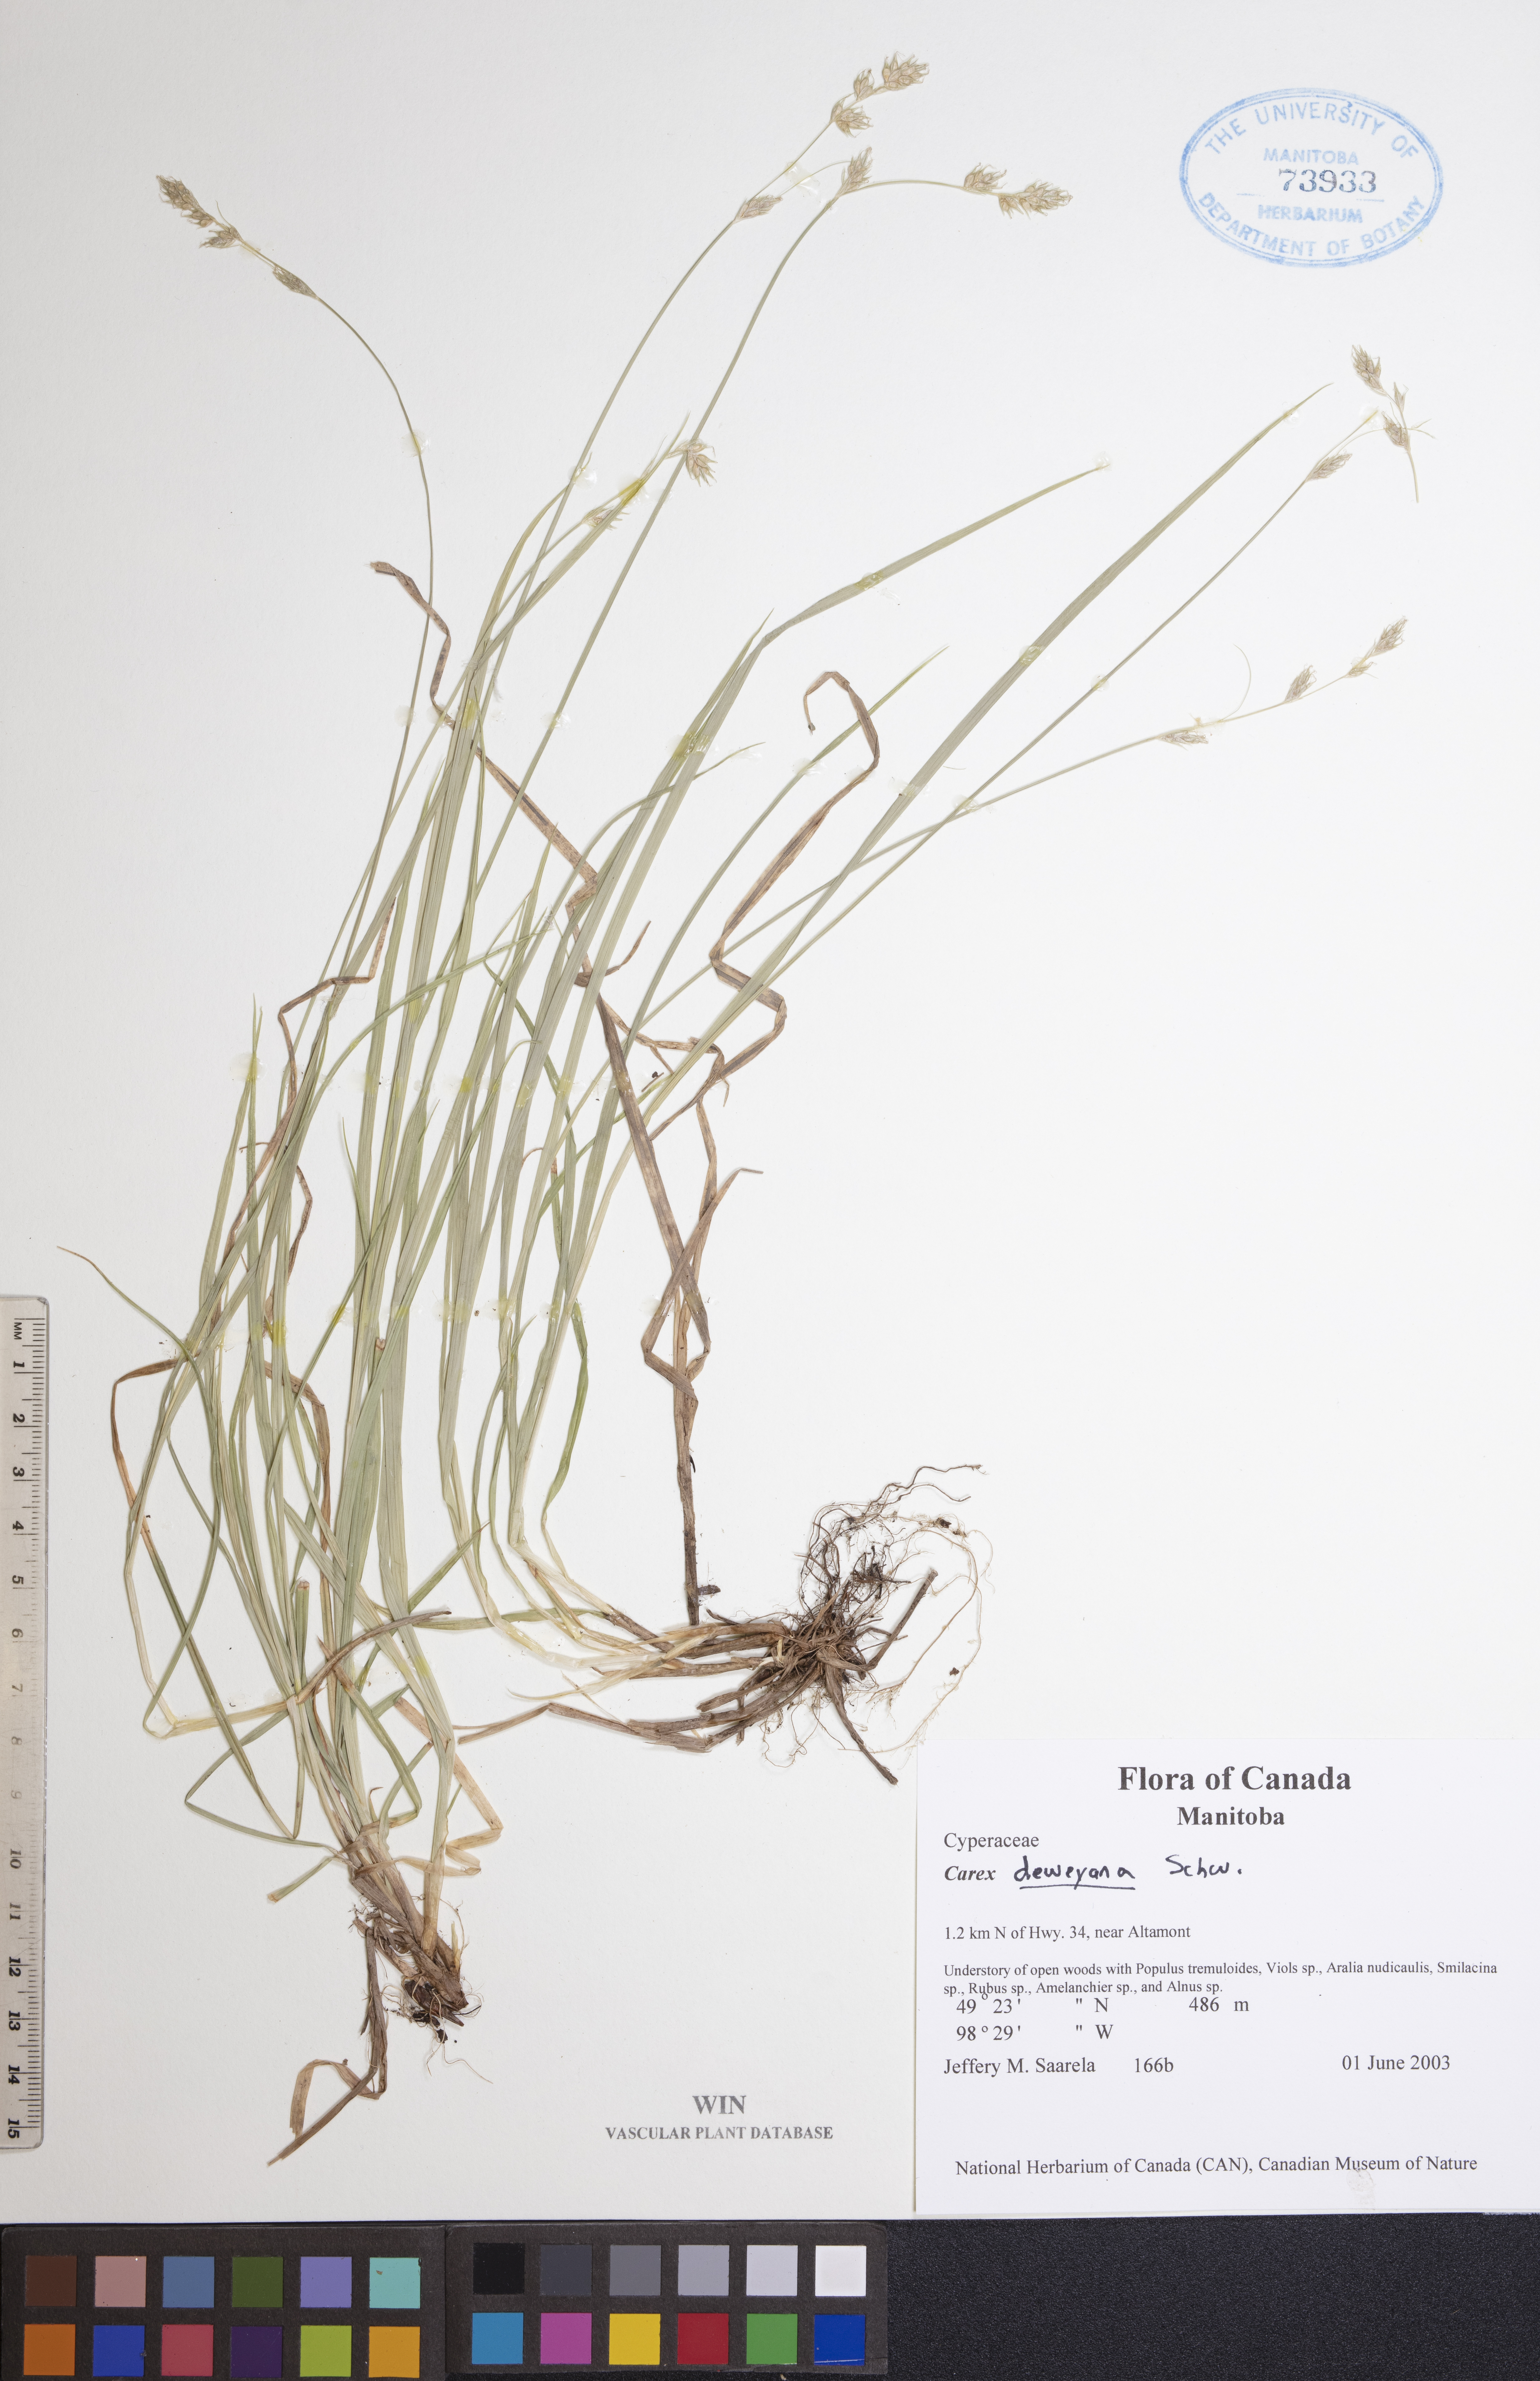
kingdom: Plantae
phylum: Tracheophyta
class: Liliopsida
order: Poales
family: Cyperaceae
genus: Carex
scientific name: Carex deweyana
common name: Dewey's sedge
